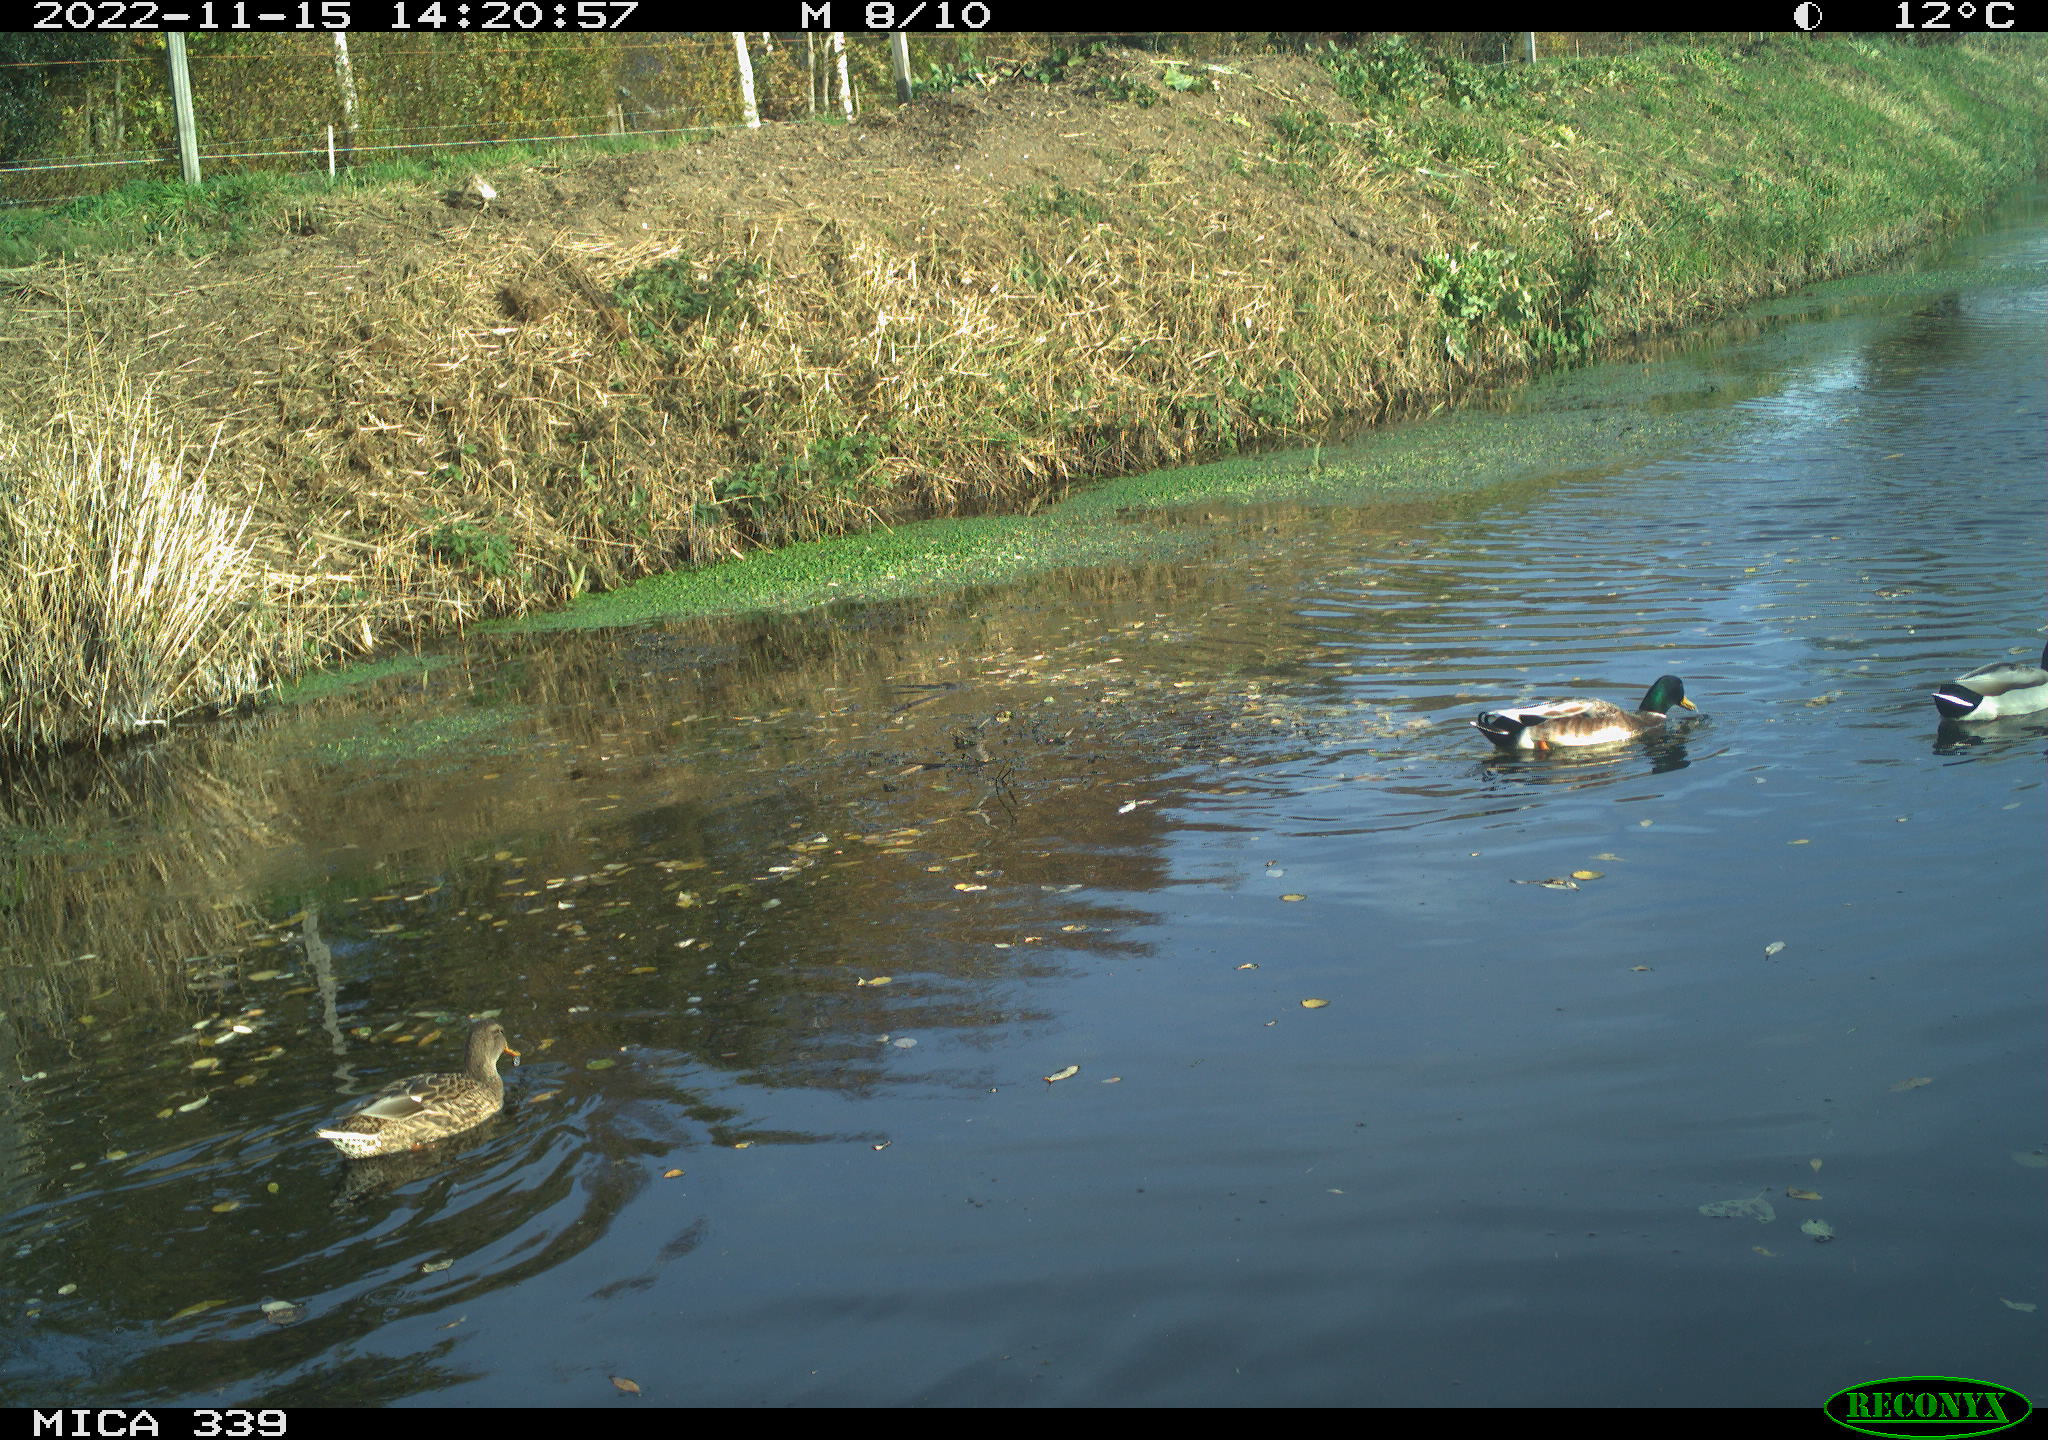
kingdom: Animalia
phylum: Chordata
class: Aves
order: Anseriformes
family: Anatidae
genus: Anas
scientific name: Anas platyrhynchos
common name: Mallard
